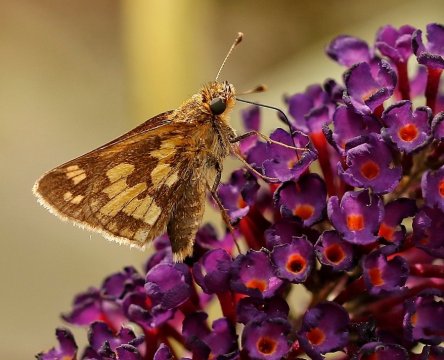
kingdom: Animalia
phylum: Arthropoda
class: Insecta
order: Lepidoptera
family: Hesperiidae
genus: Polites
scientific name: Polites coras
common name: Peck's Skipper
